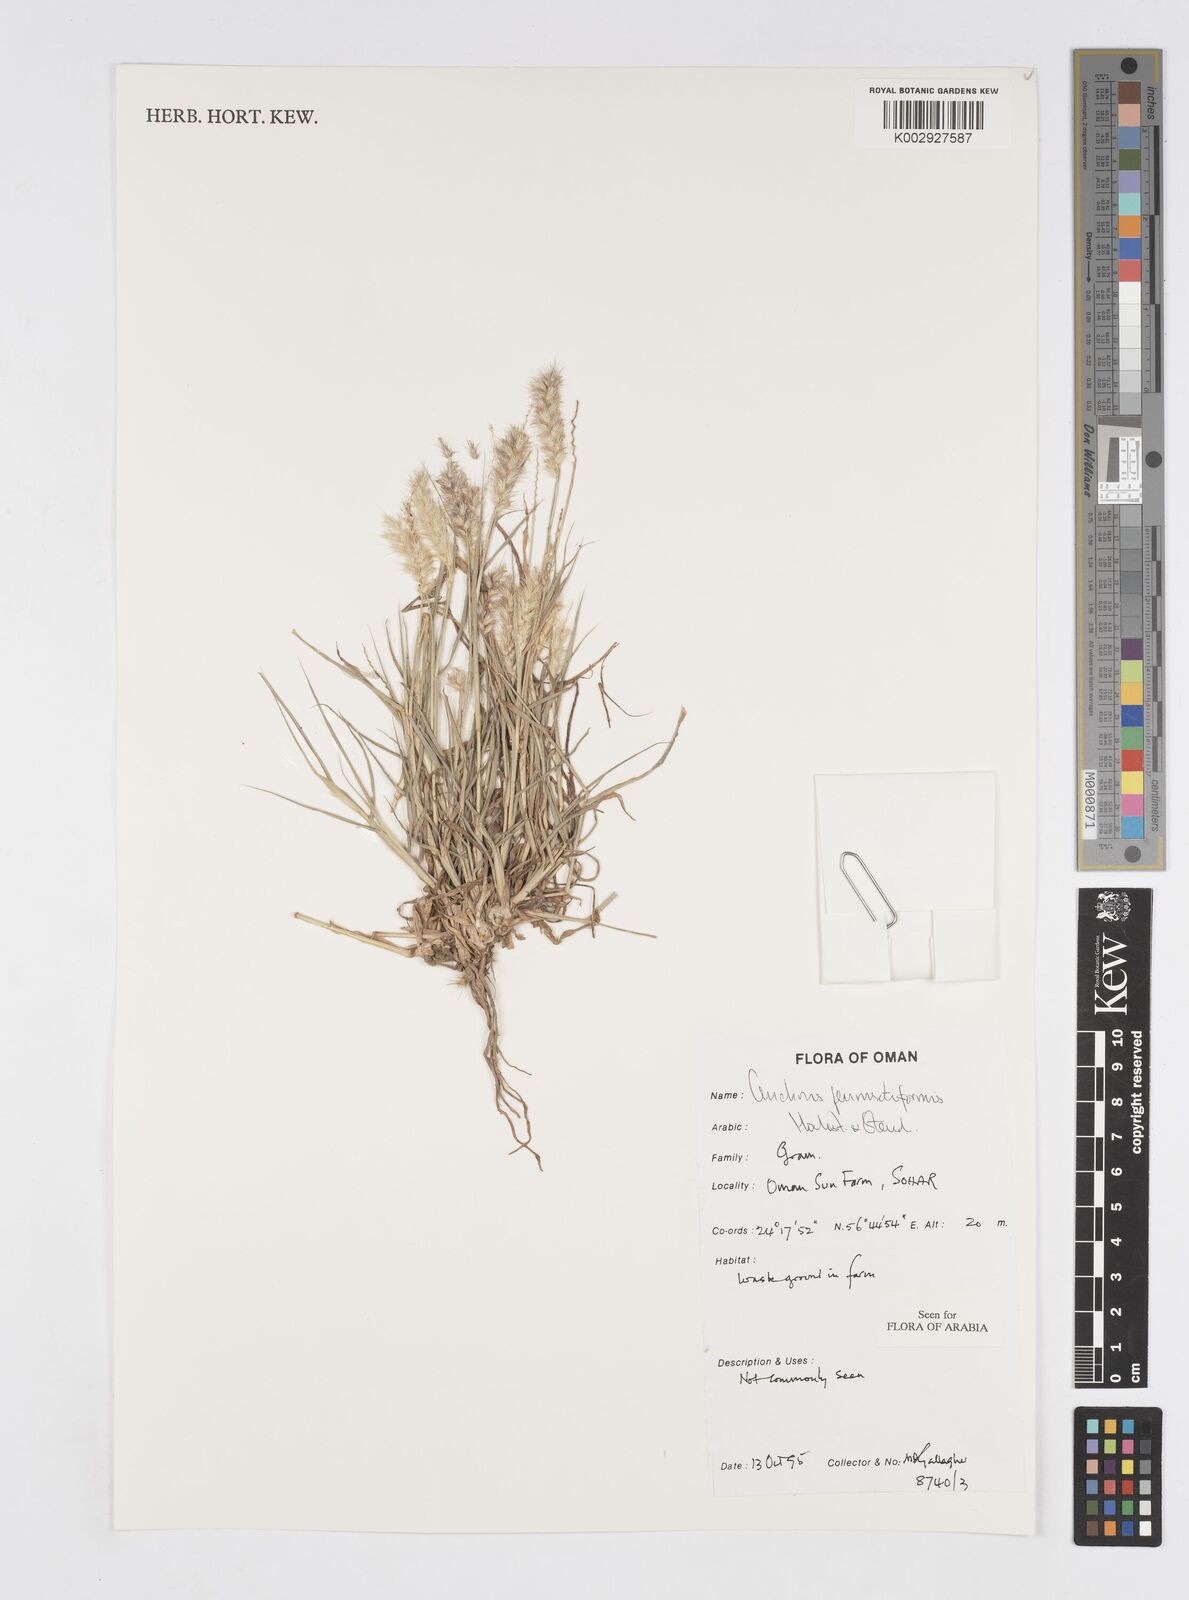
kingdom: Plantae
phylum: Tracheophyta
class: Liliopsida
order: Poales
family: Poaceae
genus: Cenchrus
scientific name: Cenchrus pennisetiformis
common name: Cloncurry
